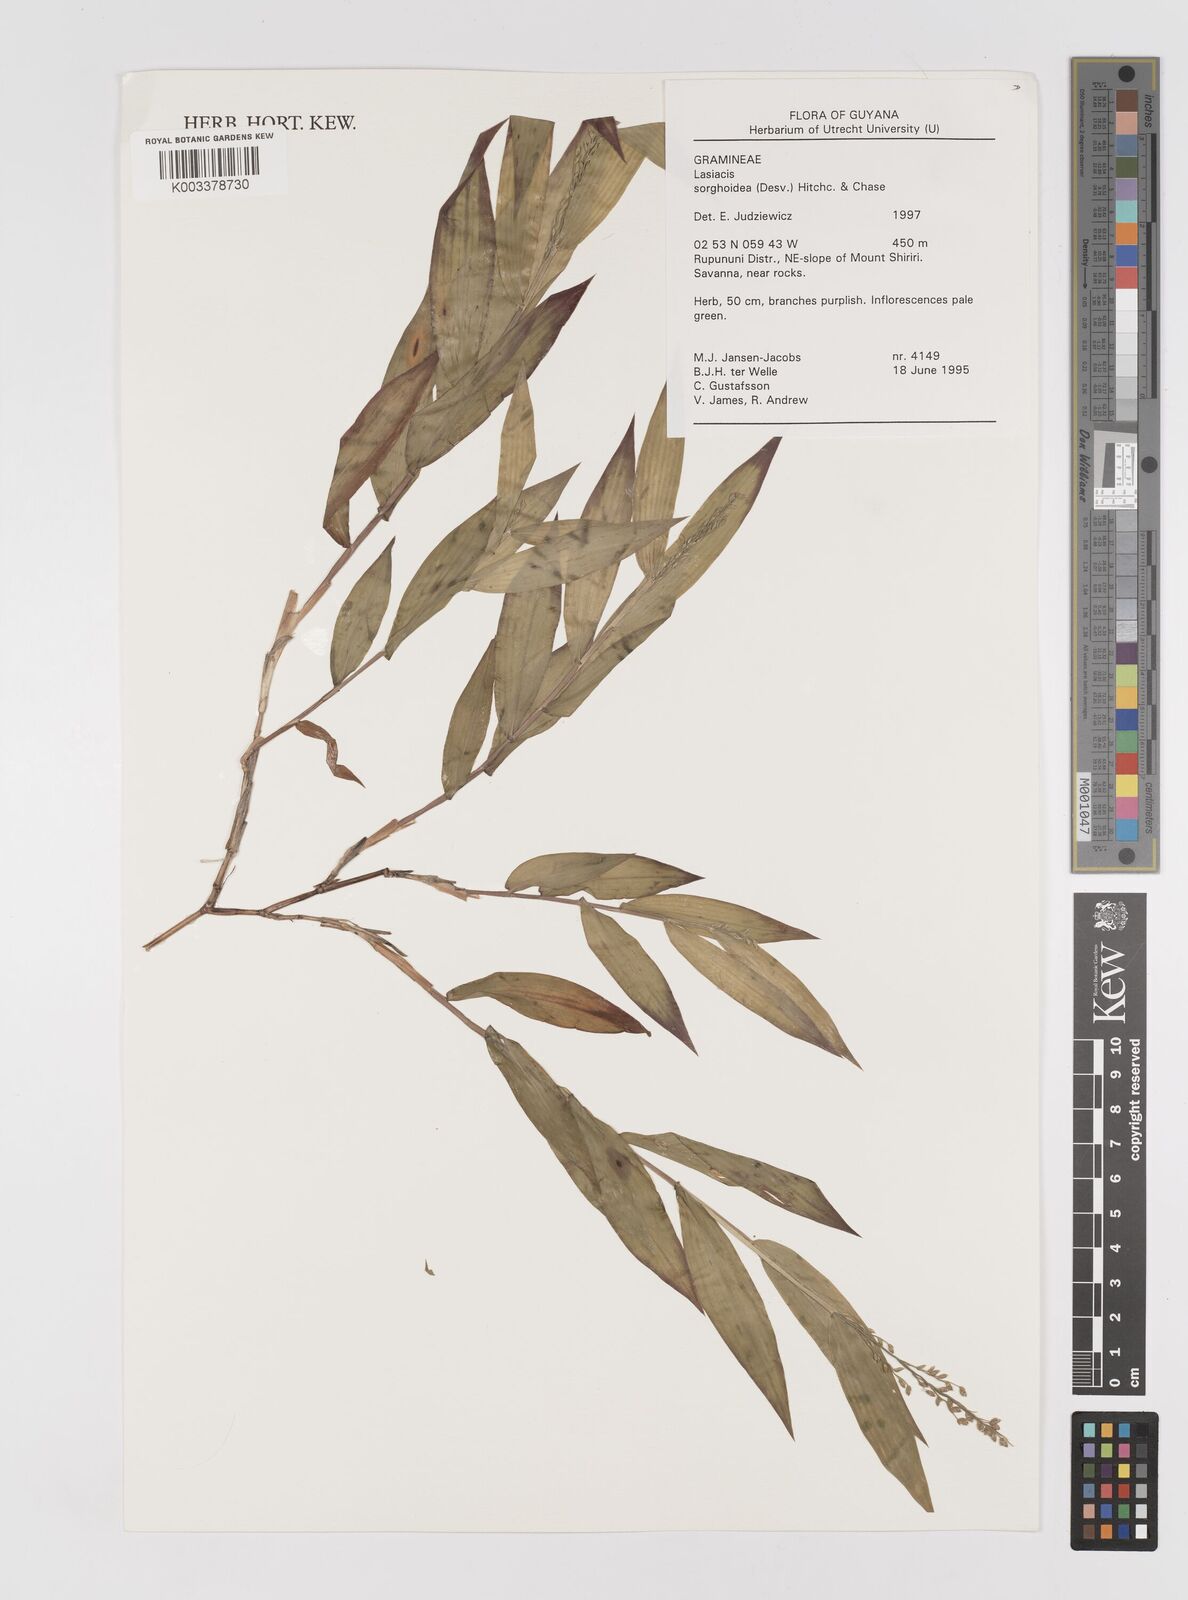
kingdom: Plantae
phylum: Tracheophyta
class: Liliopsida
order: Poales
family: Poaceae
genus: Lasiacis
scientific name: Lasiacis maculata
